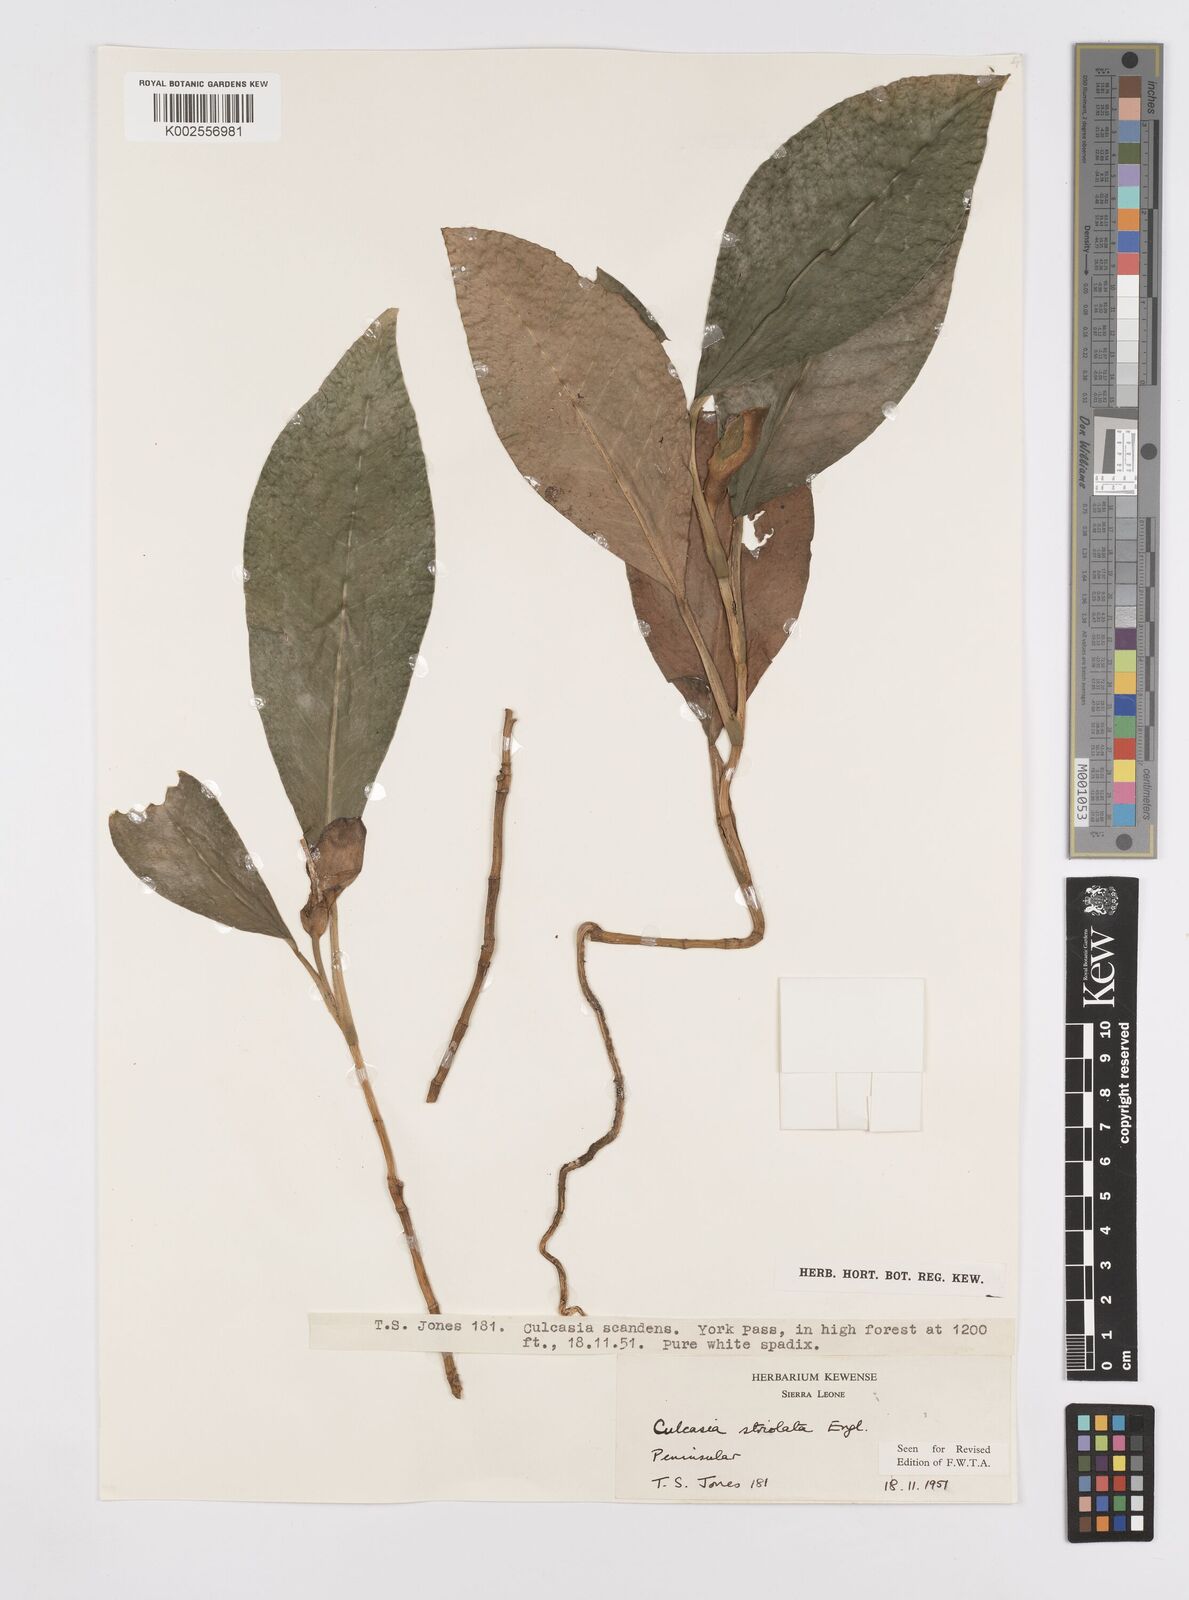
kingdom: Plantae
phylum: Tracheophyta
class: Liliopsida
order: Alismatales
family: Araceae
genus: Culcasia
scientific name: Culcasia striolata
